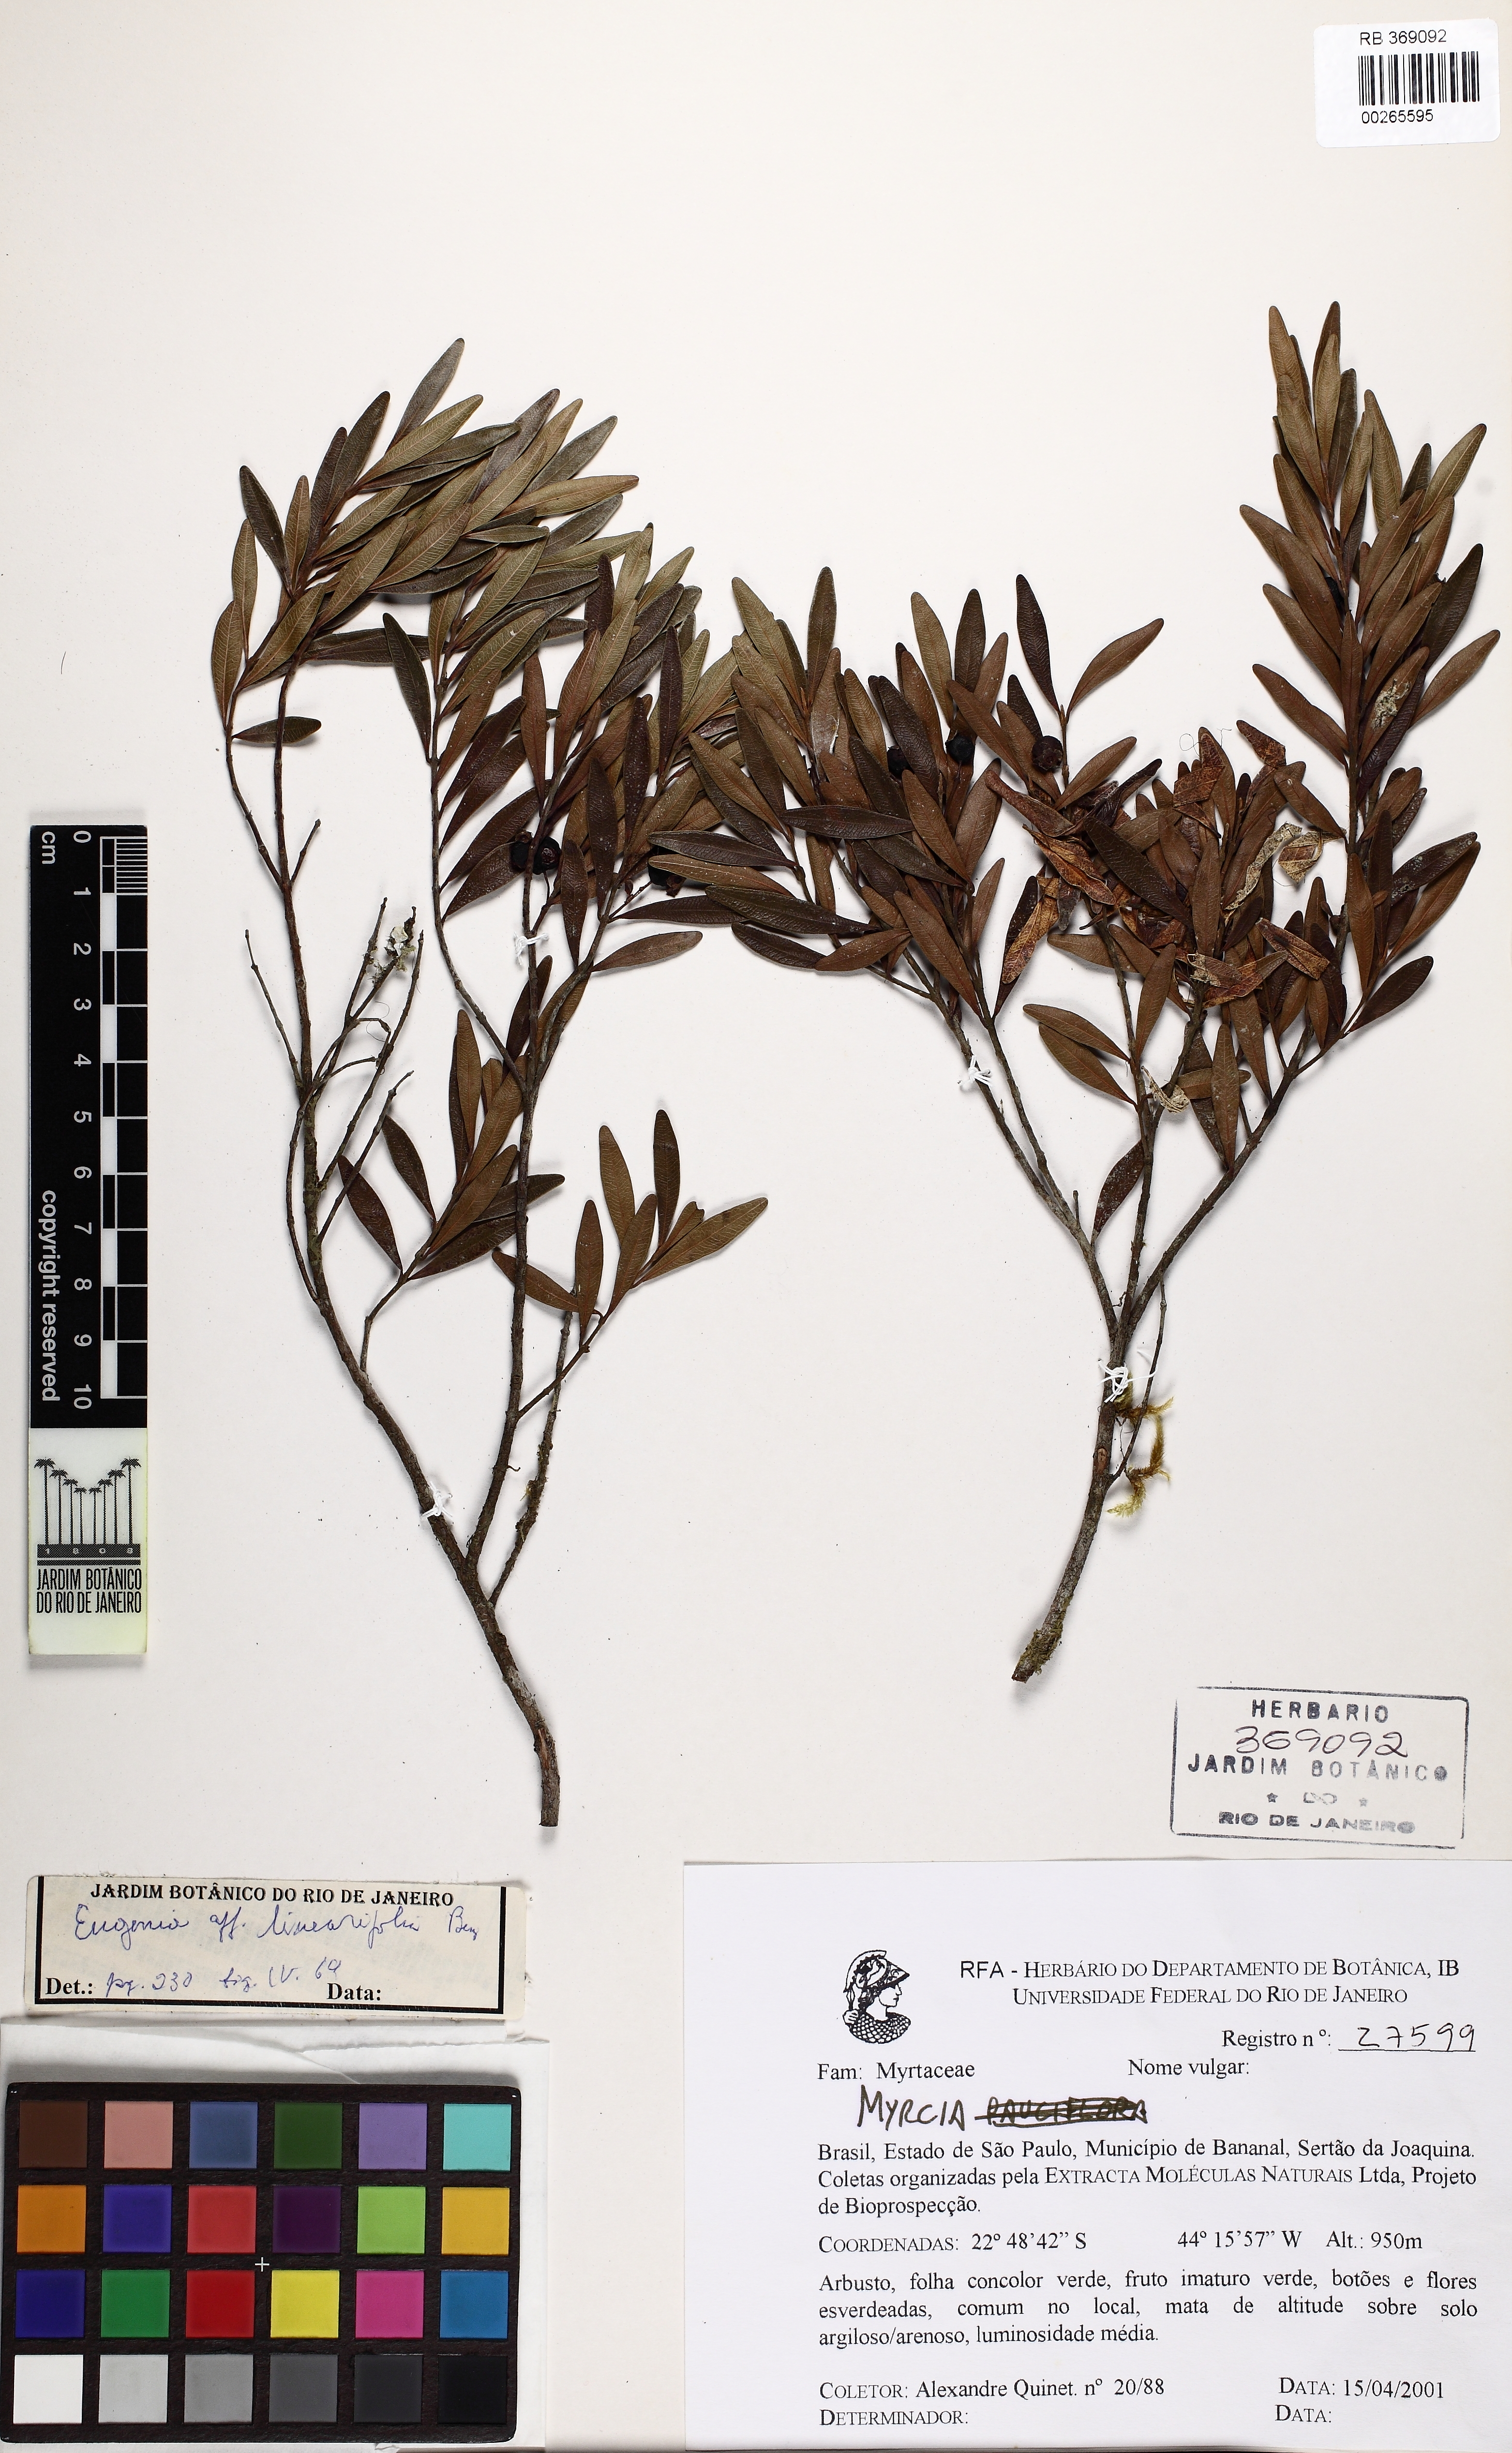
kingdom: Plantae
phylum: Tracheophyta
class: Magnoliopsida
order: Myrtales
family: Myrtaceae
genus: Eugenia
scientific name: Eugenia punicifolia
